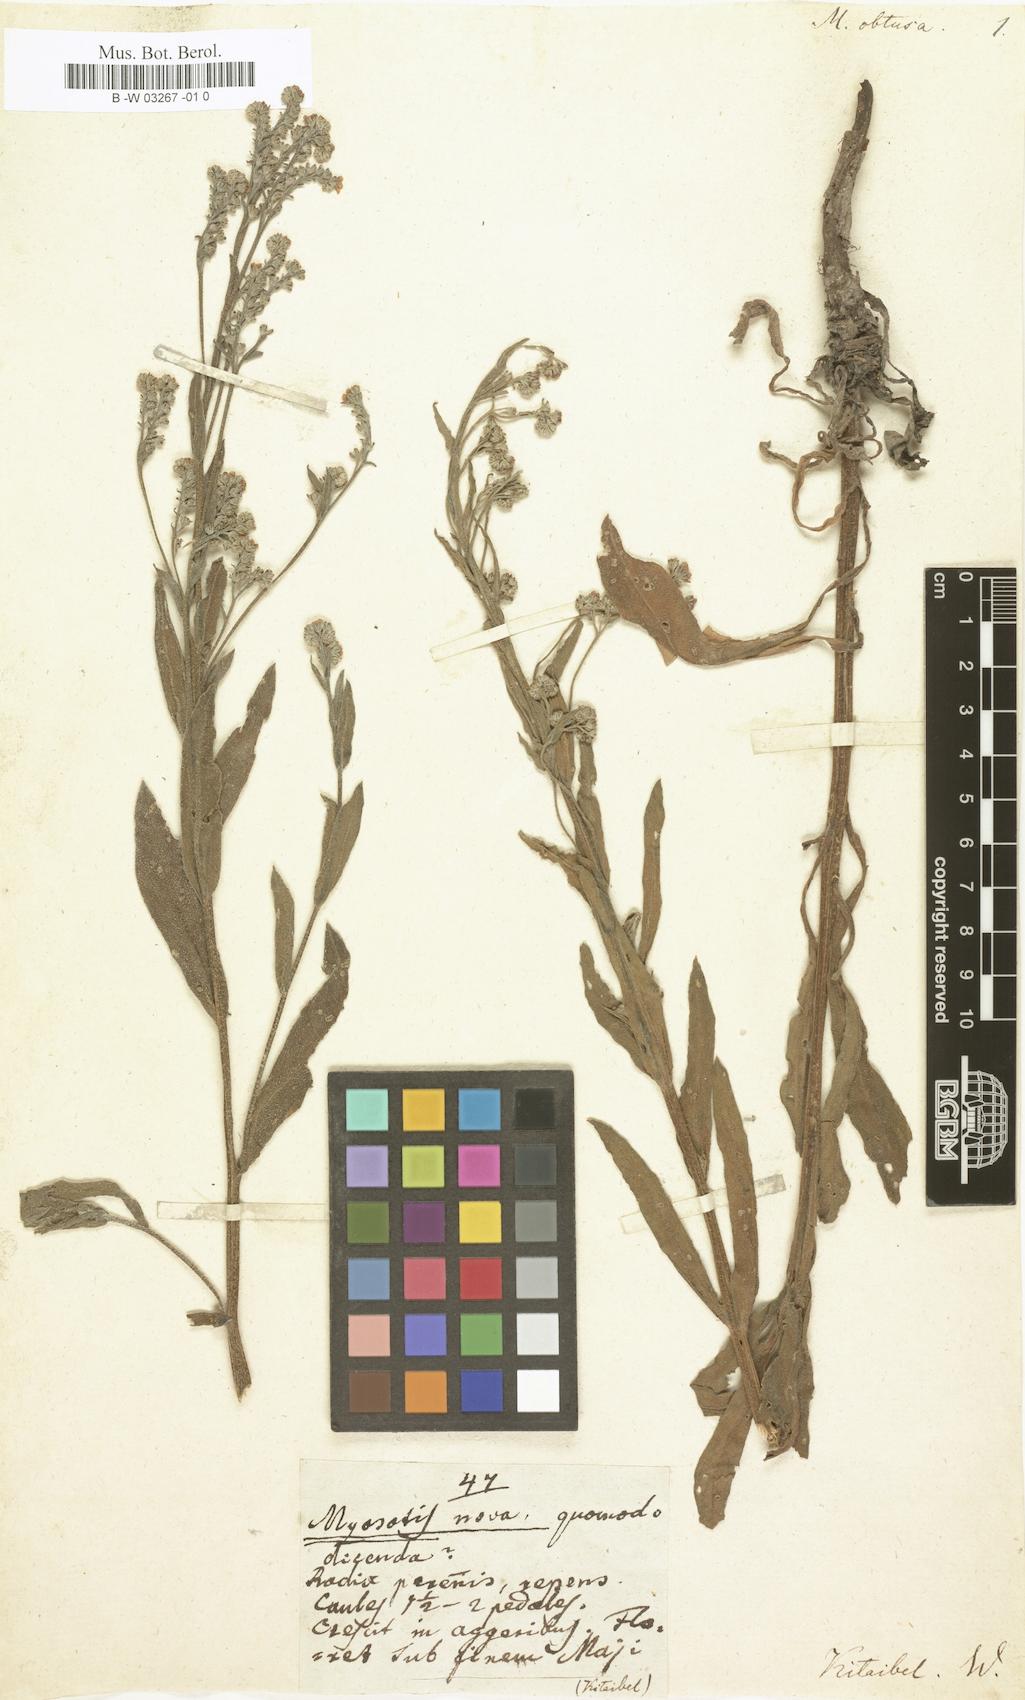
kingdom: Plantae
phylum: Tracheophyta
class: Magnoliopsida
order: Boraginales
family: Boraginaceae
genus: Cynoglottis
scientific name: Cynoglottis barrelieri
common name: False alkanet
